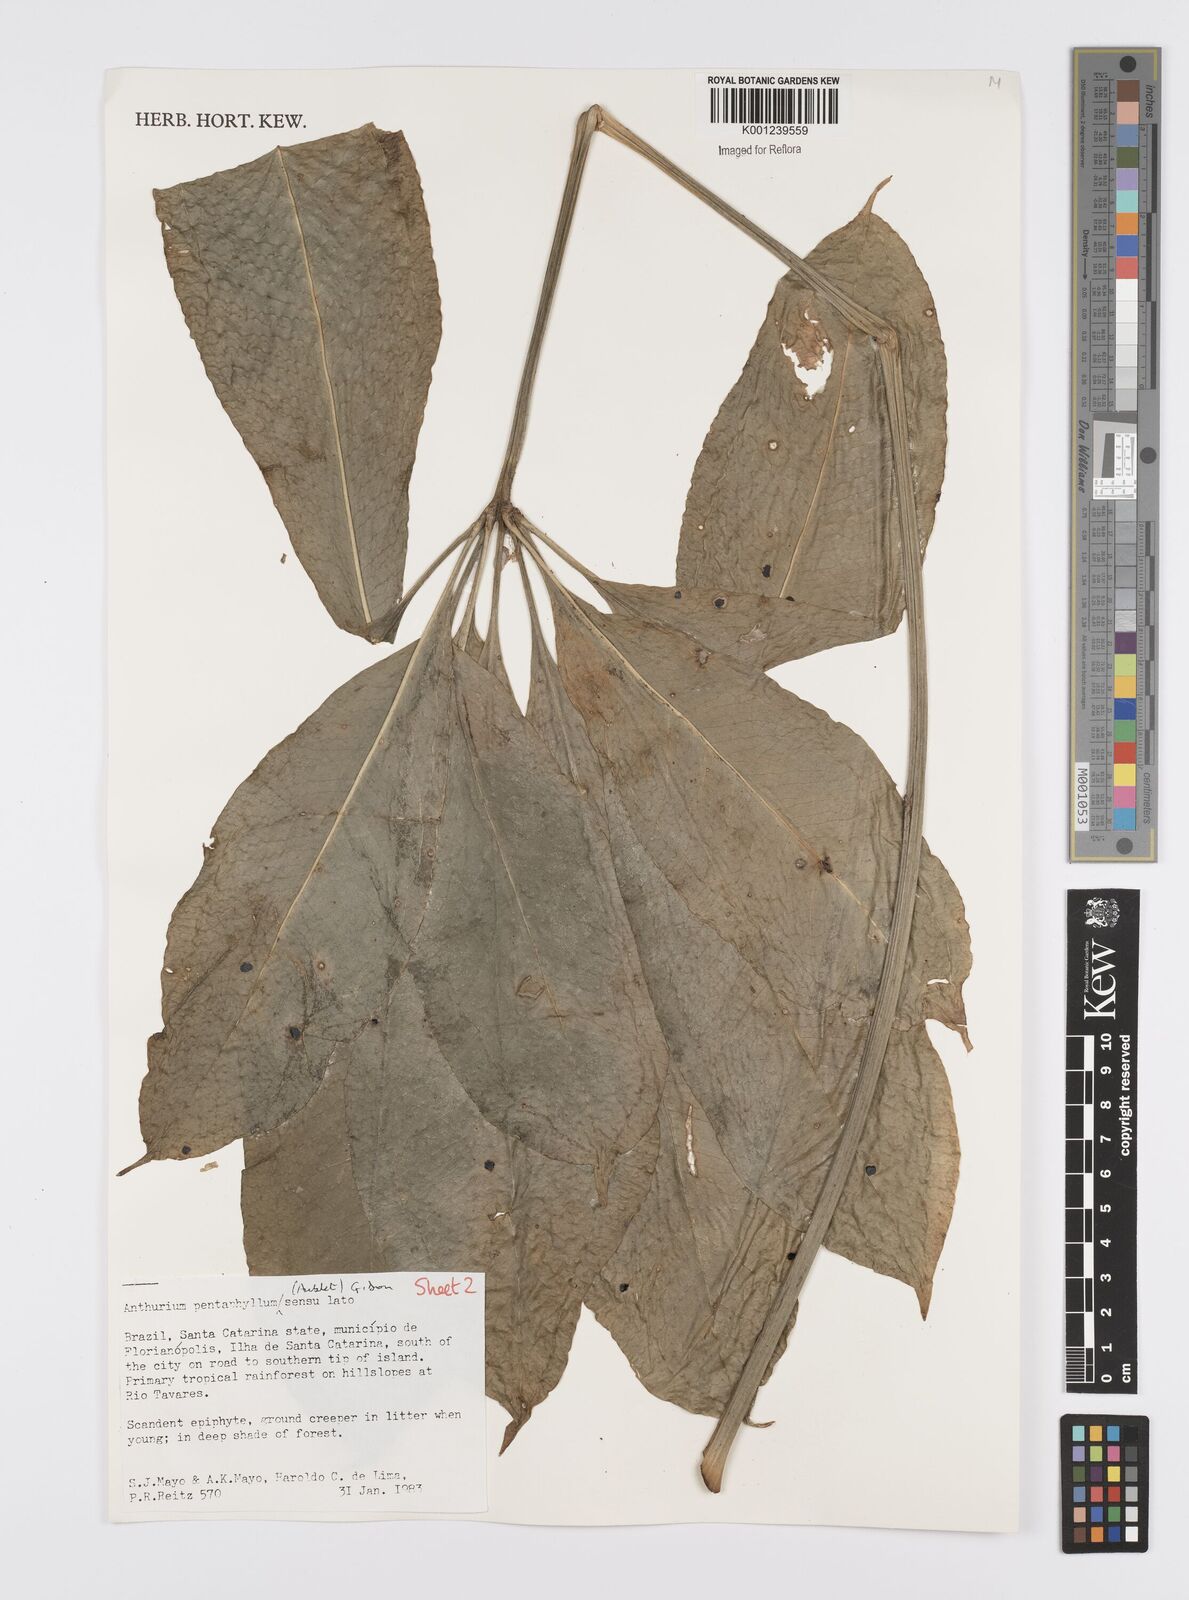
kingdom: Plantae
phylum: Tracheophyta
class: Liliopsida
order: Alismatales
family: Araceae
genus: Anthurium
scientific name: Anthurium pentaphyllum
